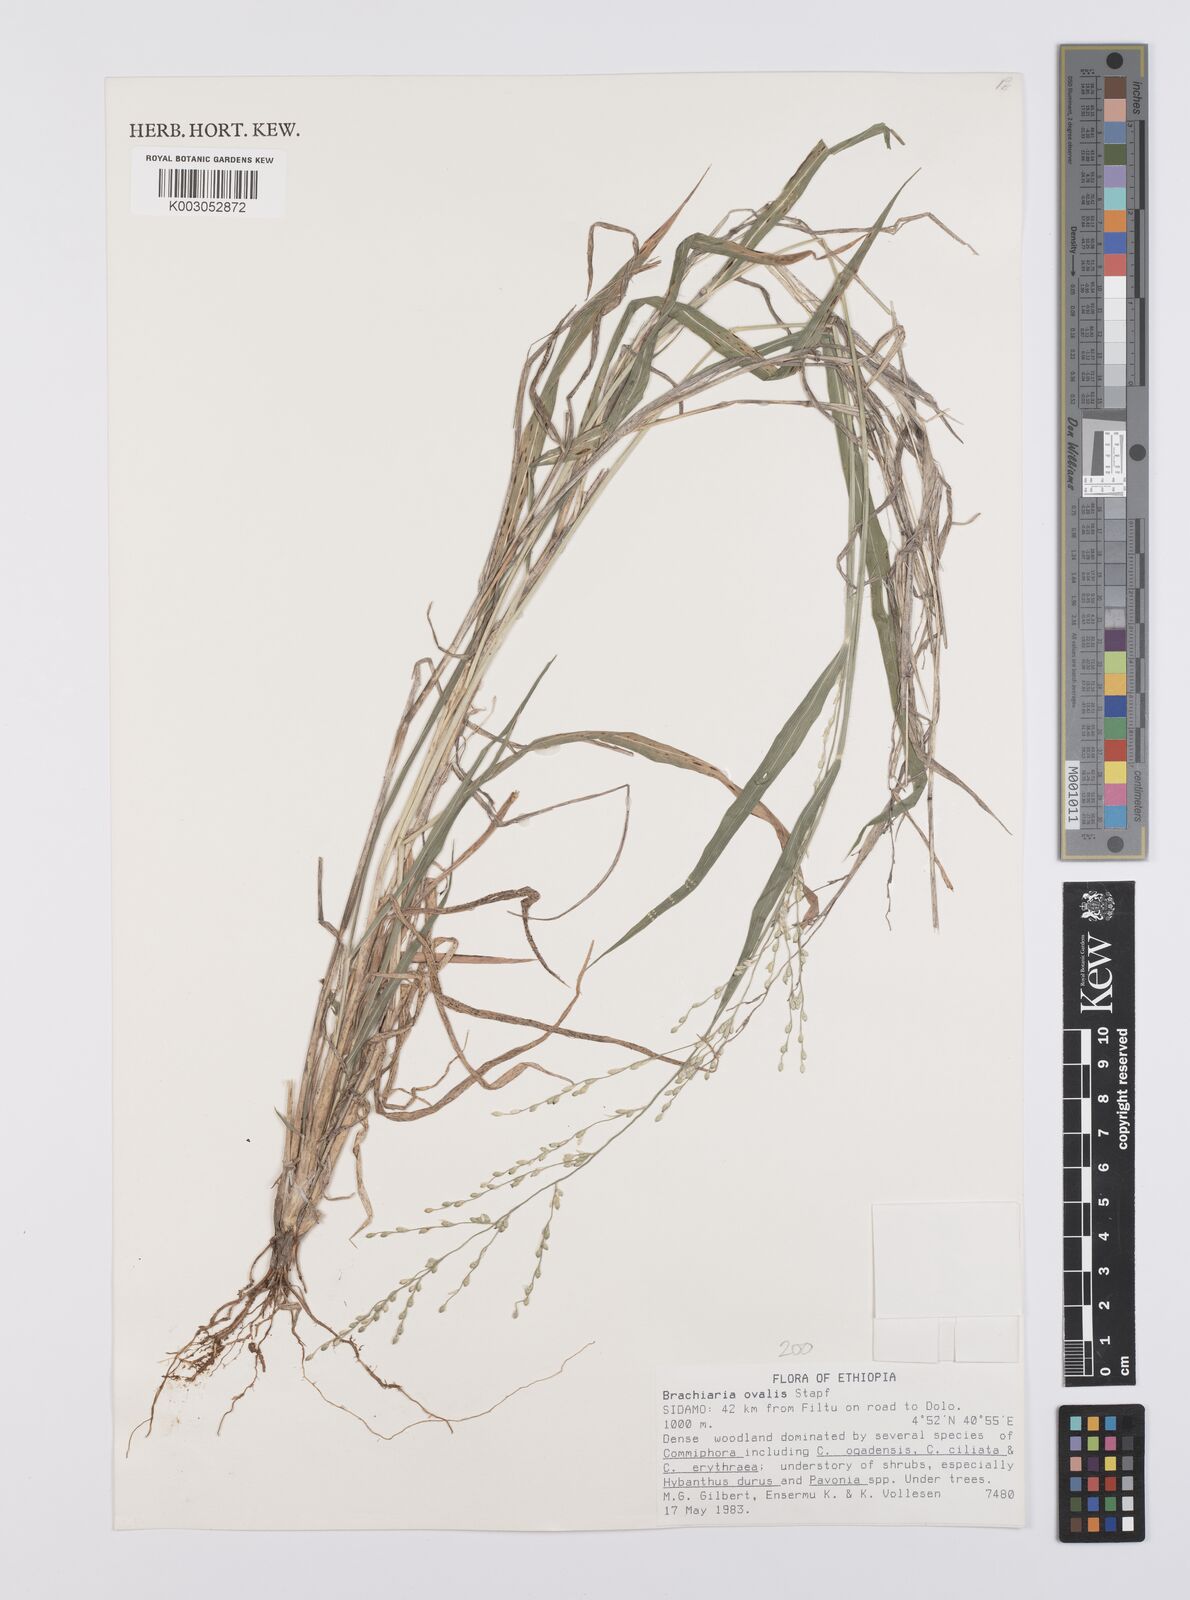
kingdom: Plantae
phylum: Tracheophyta
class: Liliopsida
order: Poales
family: Poaceae
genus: Urochloa
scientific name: Urochloa ovalis
